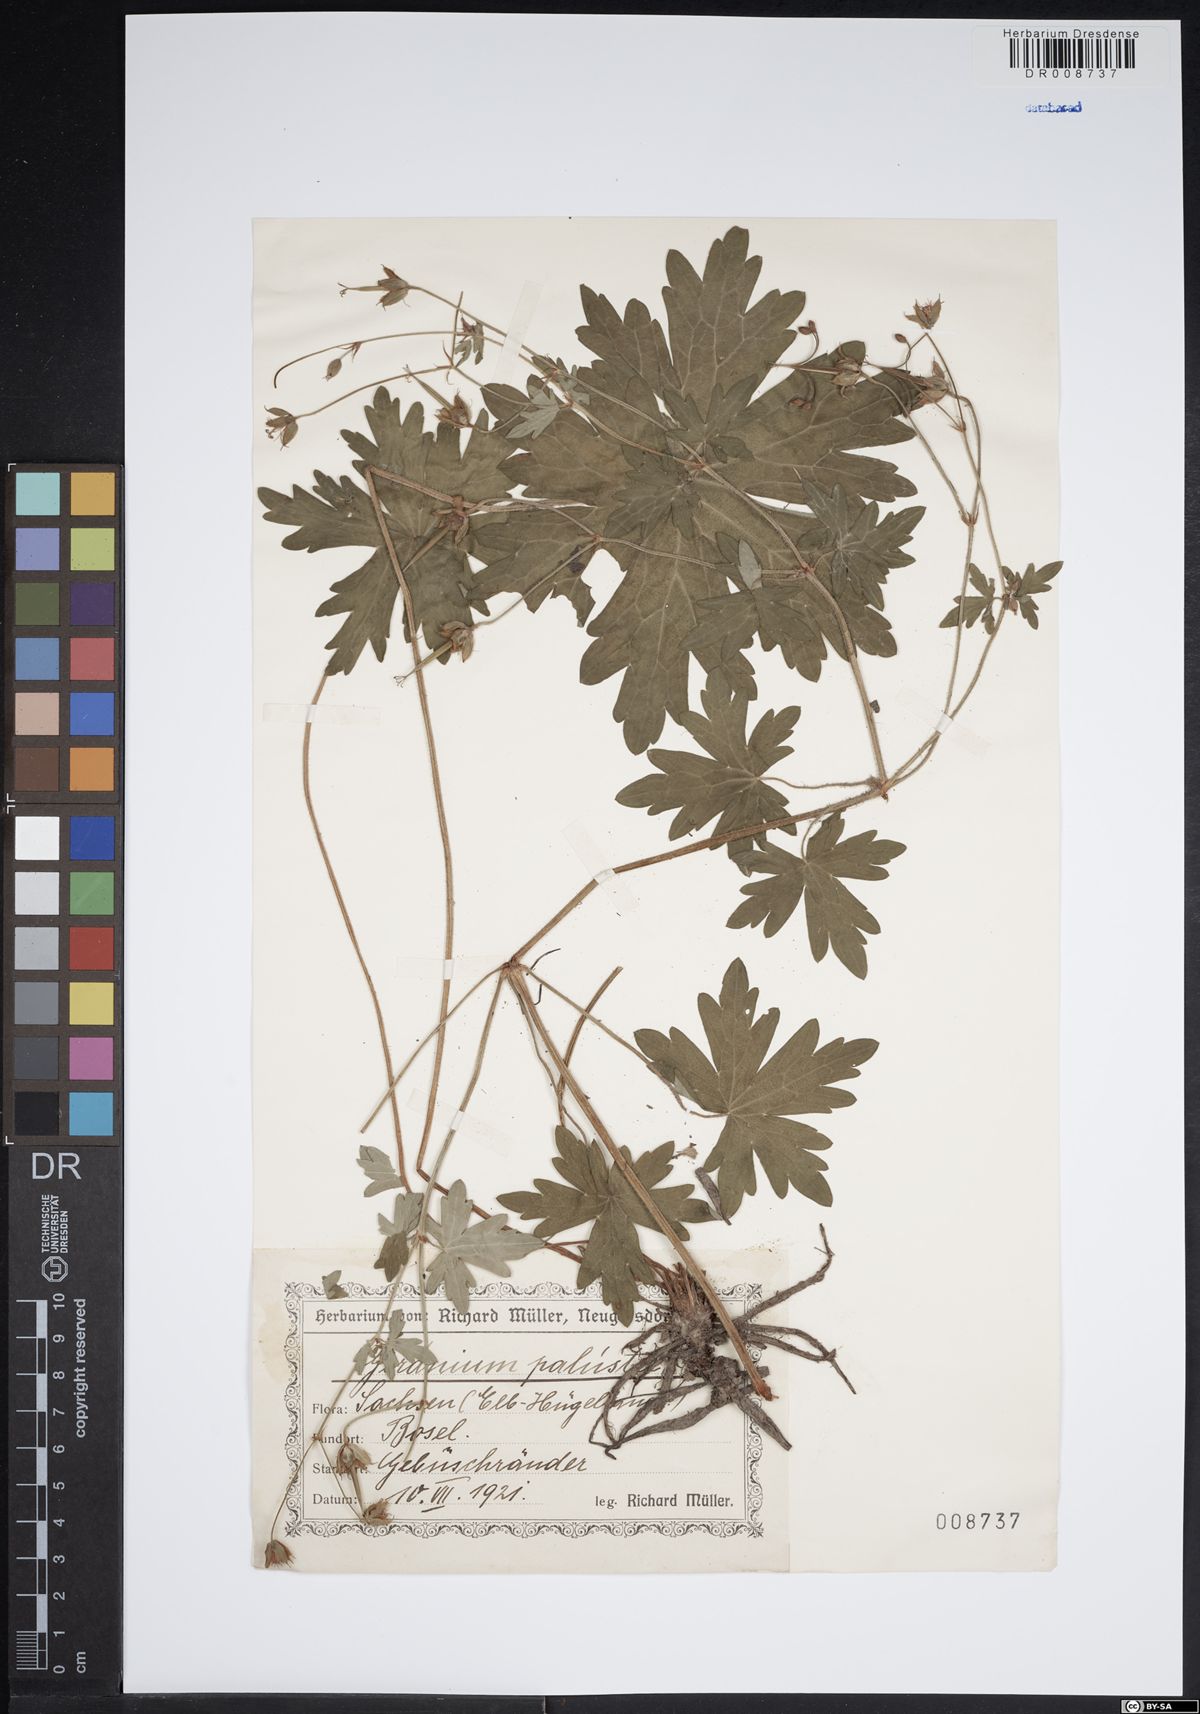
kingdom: Plantae
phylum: Tracheophyta
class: Magnoliopsida
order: Geraniales
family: Geraniaceae
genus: Geranium
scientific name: Geranium palustre
